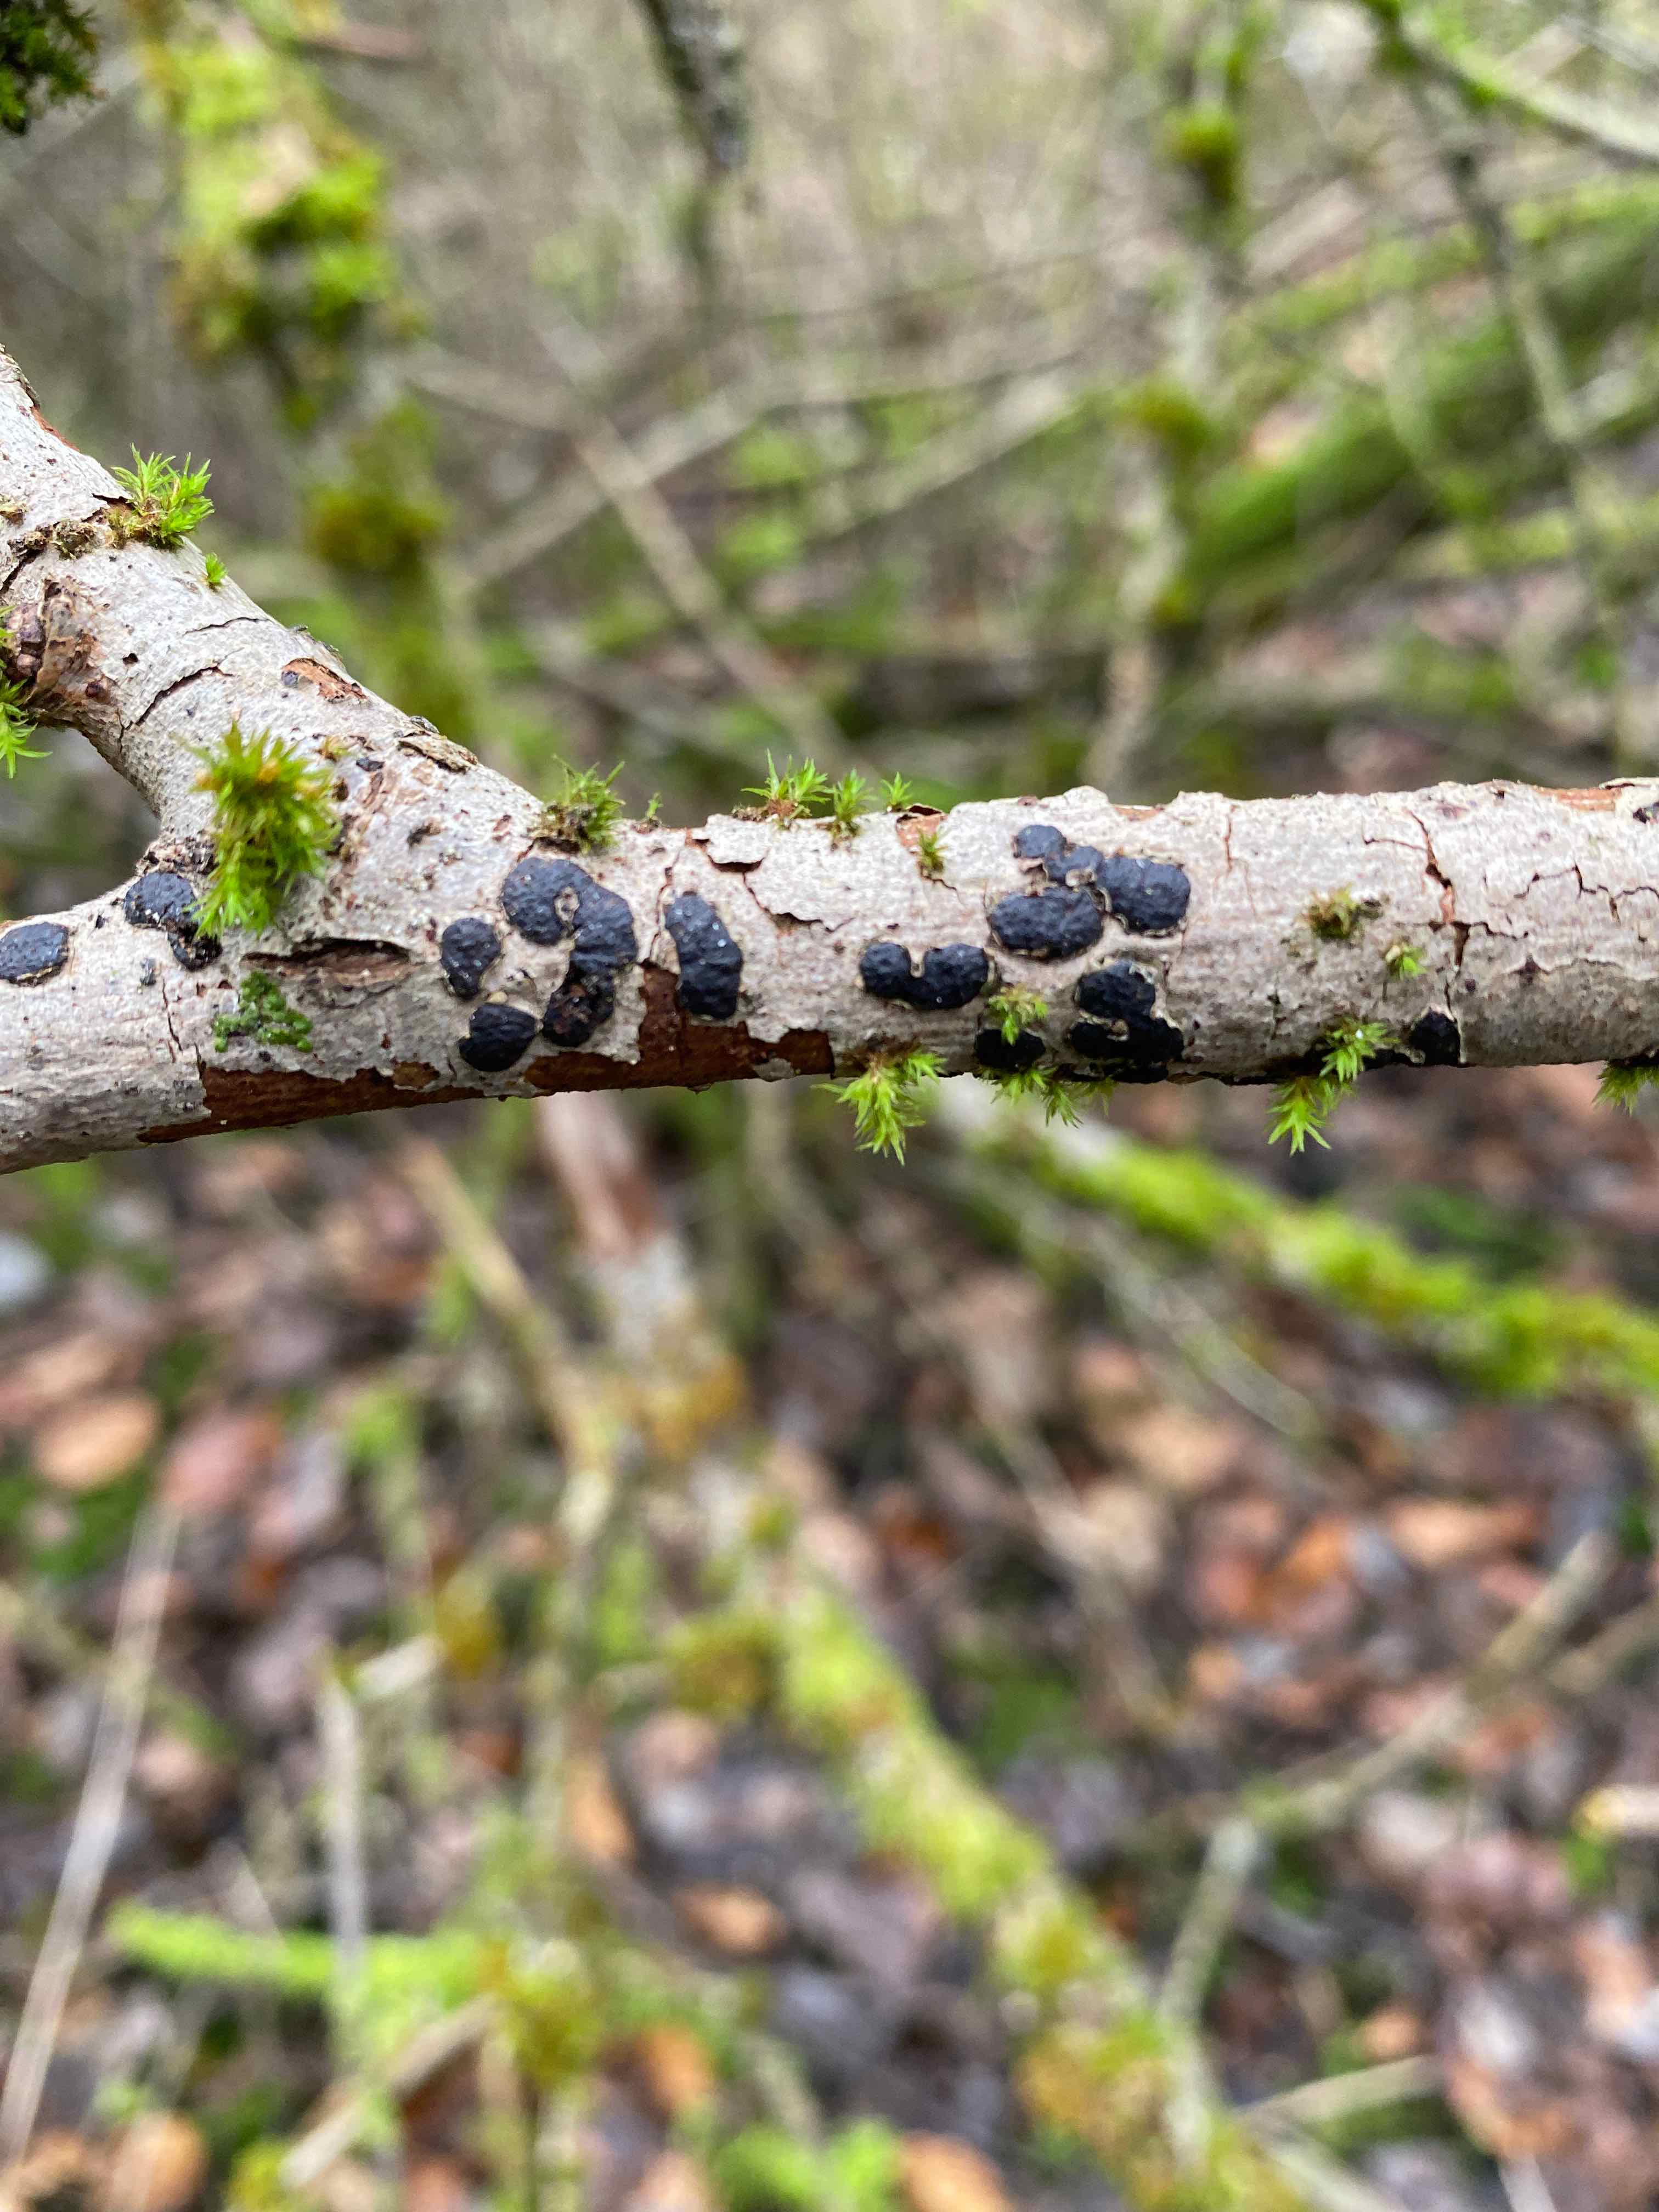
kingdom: Fungi
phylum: Ascomycota
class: Sordariomycetes
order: Xylariales
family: Diatrypaceae
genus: Diatrype
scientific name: Diatrype bullata
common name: pile-kulskorpe
